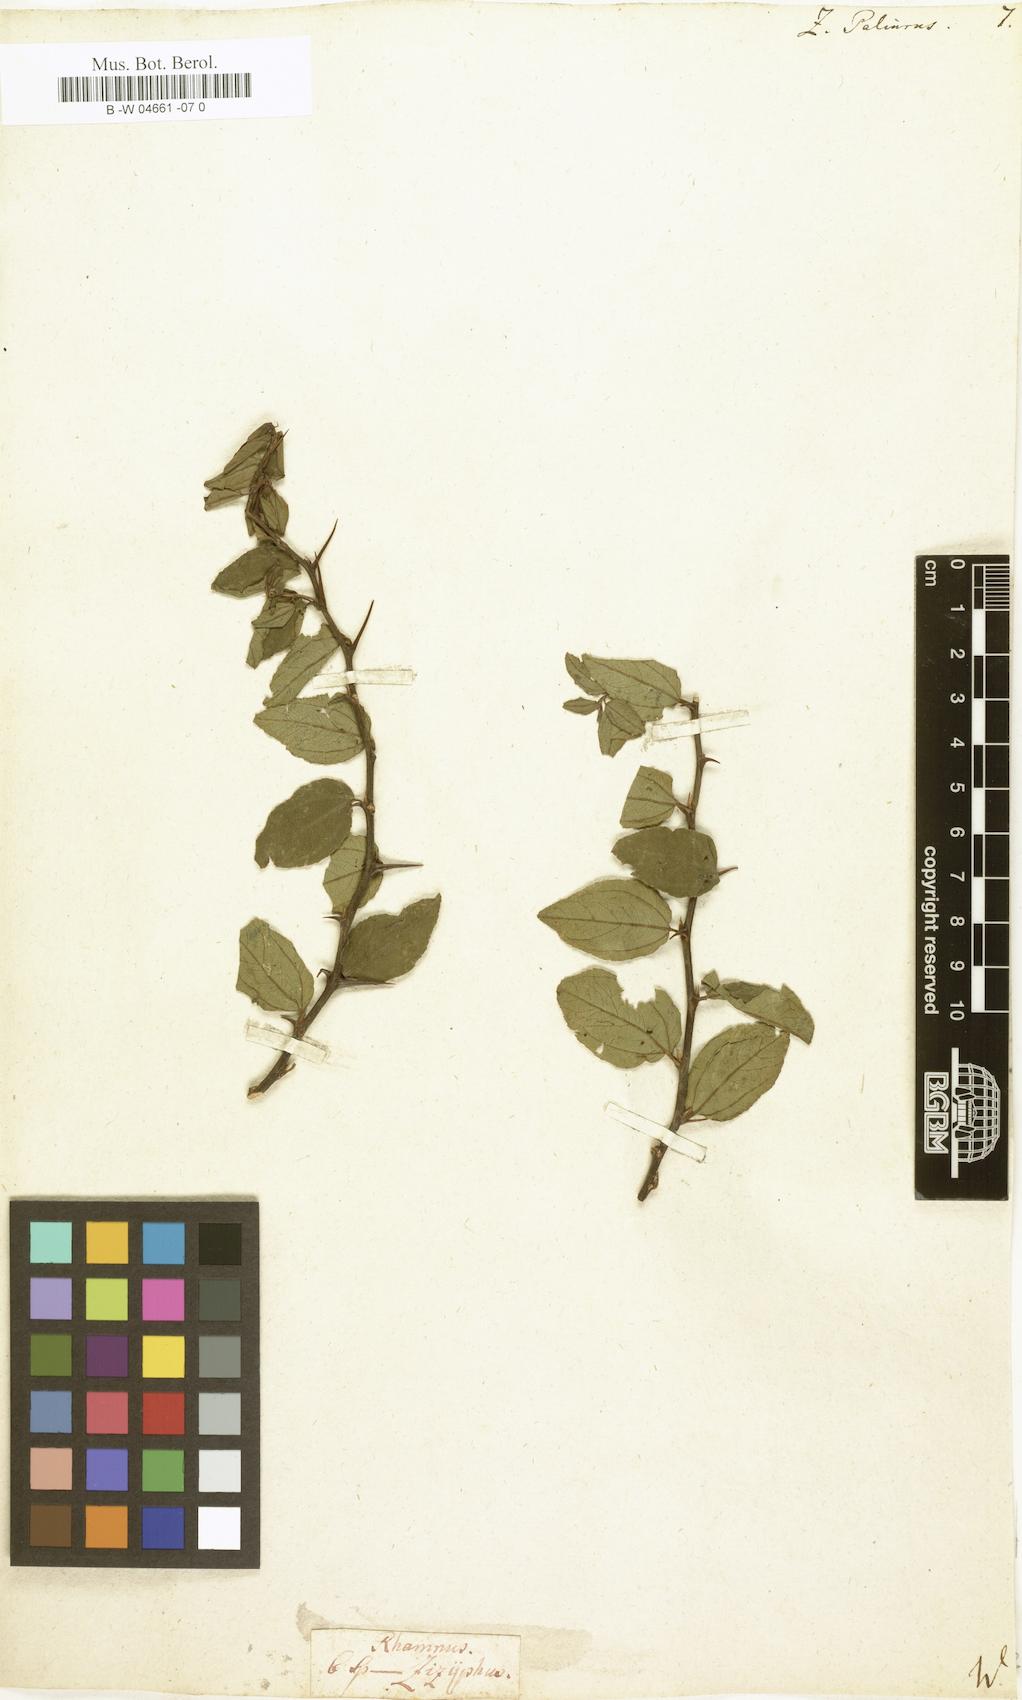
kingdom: Plantae
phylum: Tracheophyta
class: Magnoliopsida
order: Rosales
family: Rhamnaceae
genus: Paliurus
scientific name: Paliurus spina-christi
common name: Jeruselem thorn
